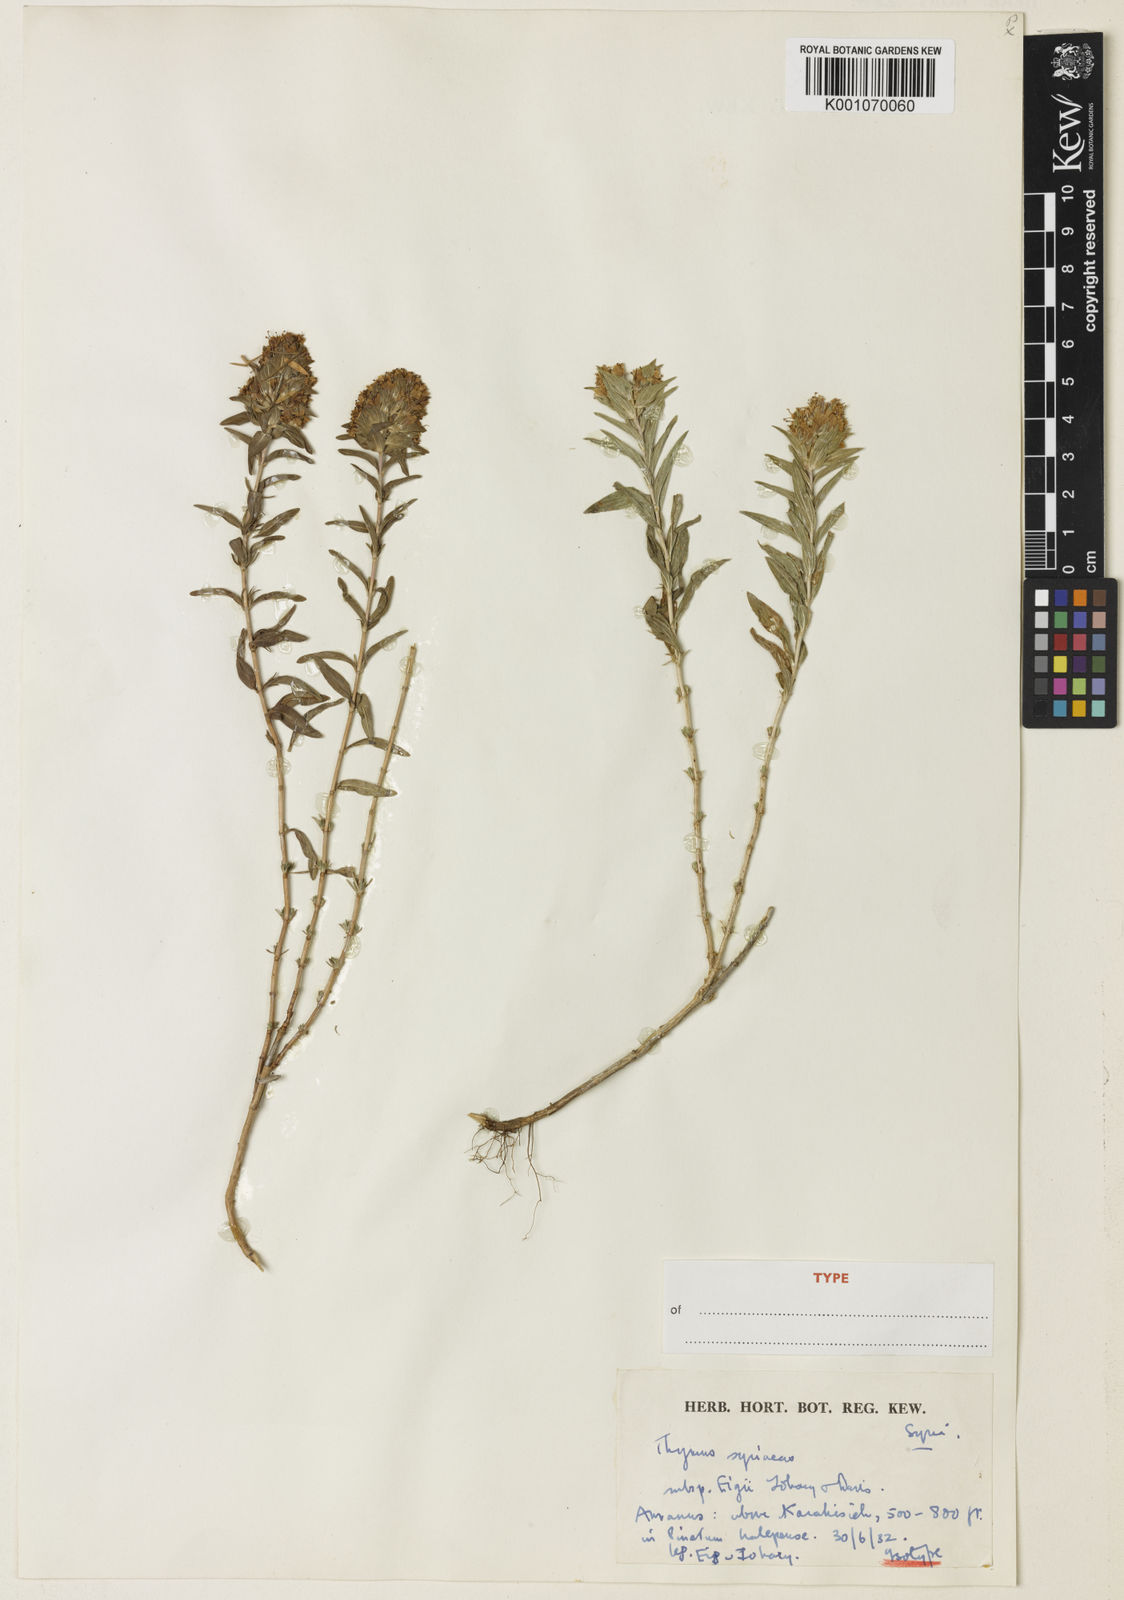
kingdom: Plantae
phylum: Tracheophyta
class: Magnoliopsida
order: Lamiales
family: Lamiaceae
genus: Thymus
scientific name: Thymus syriacus
